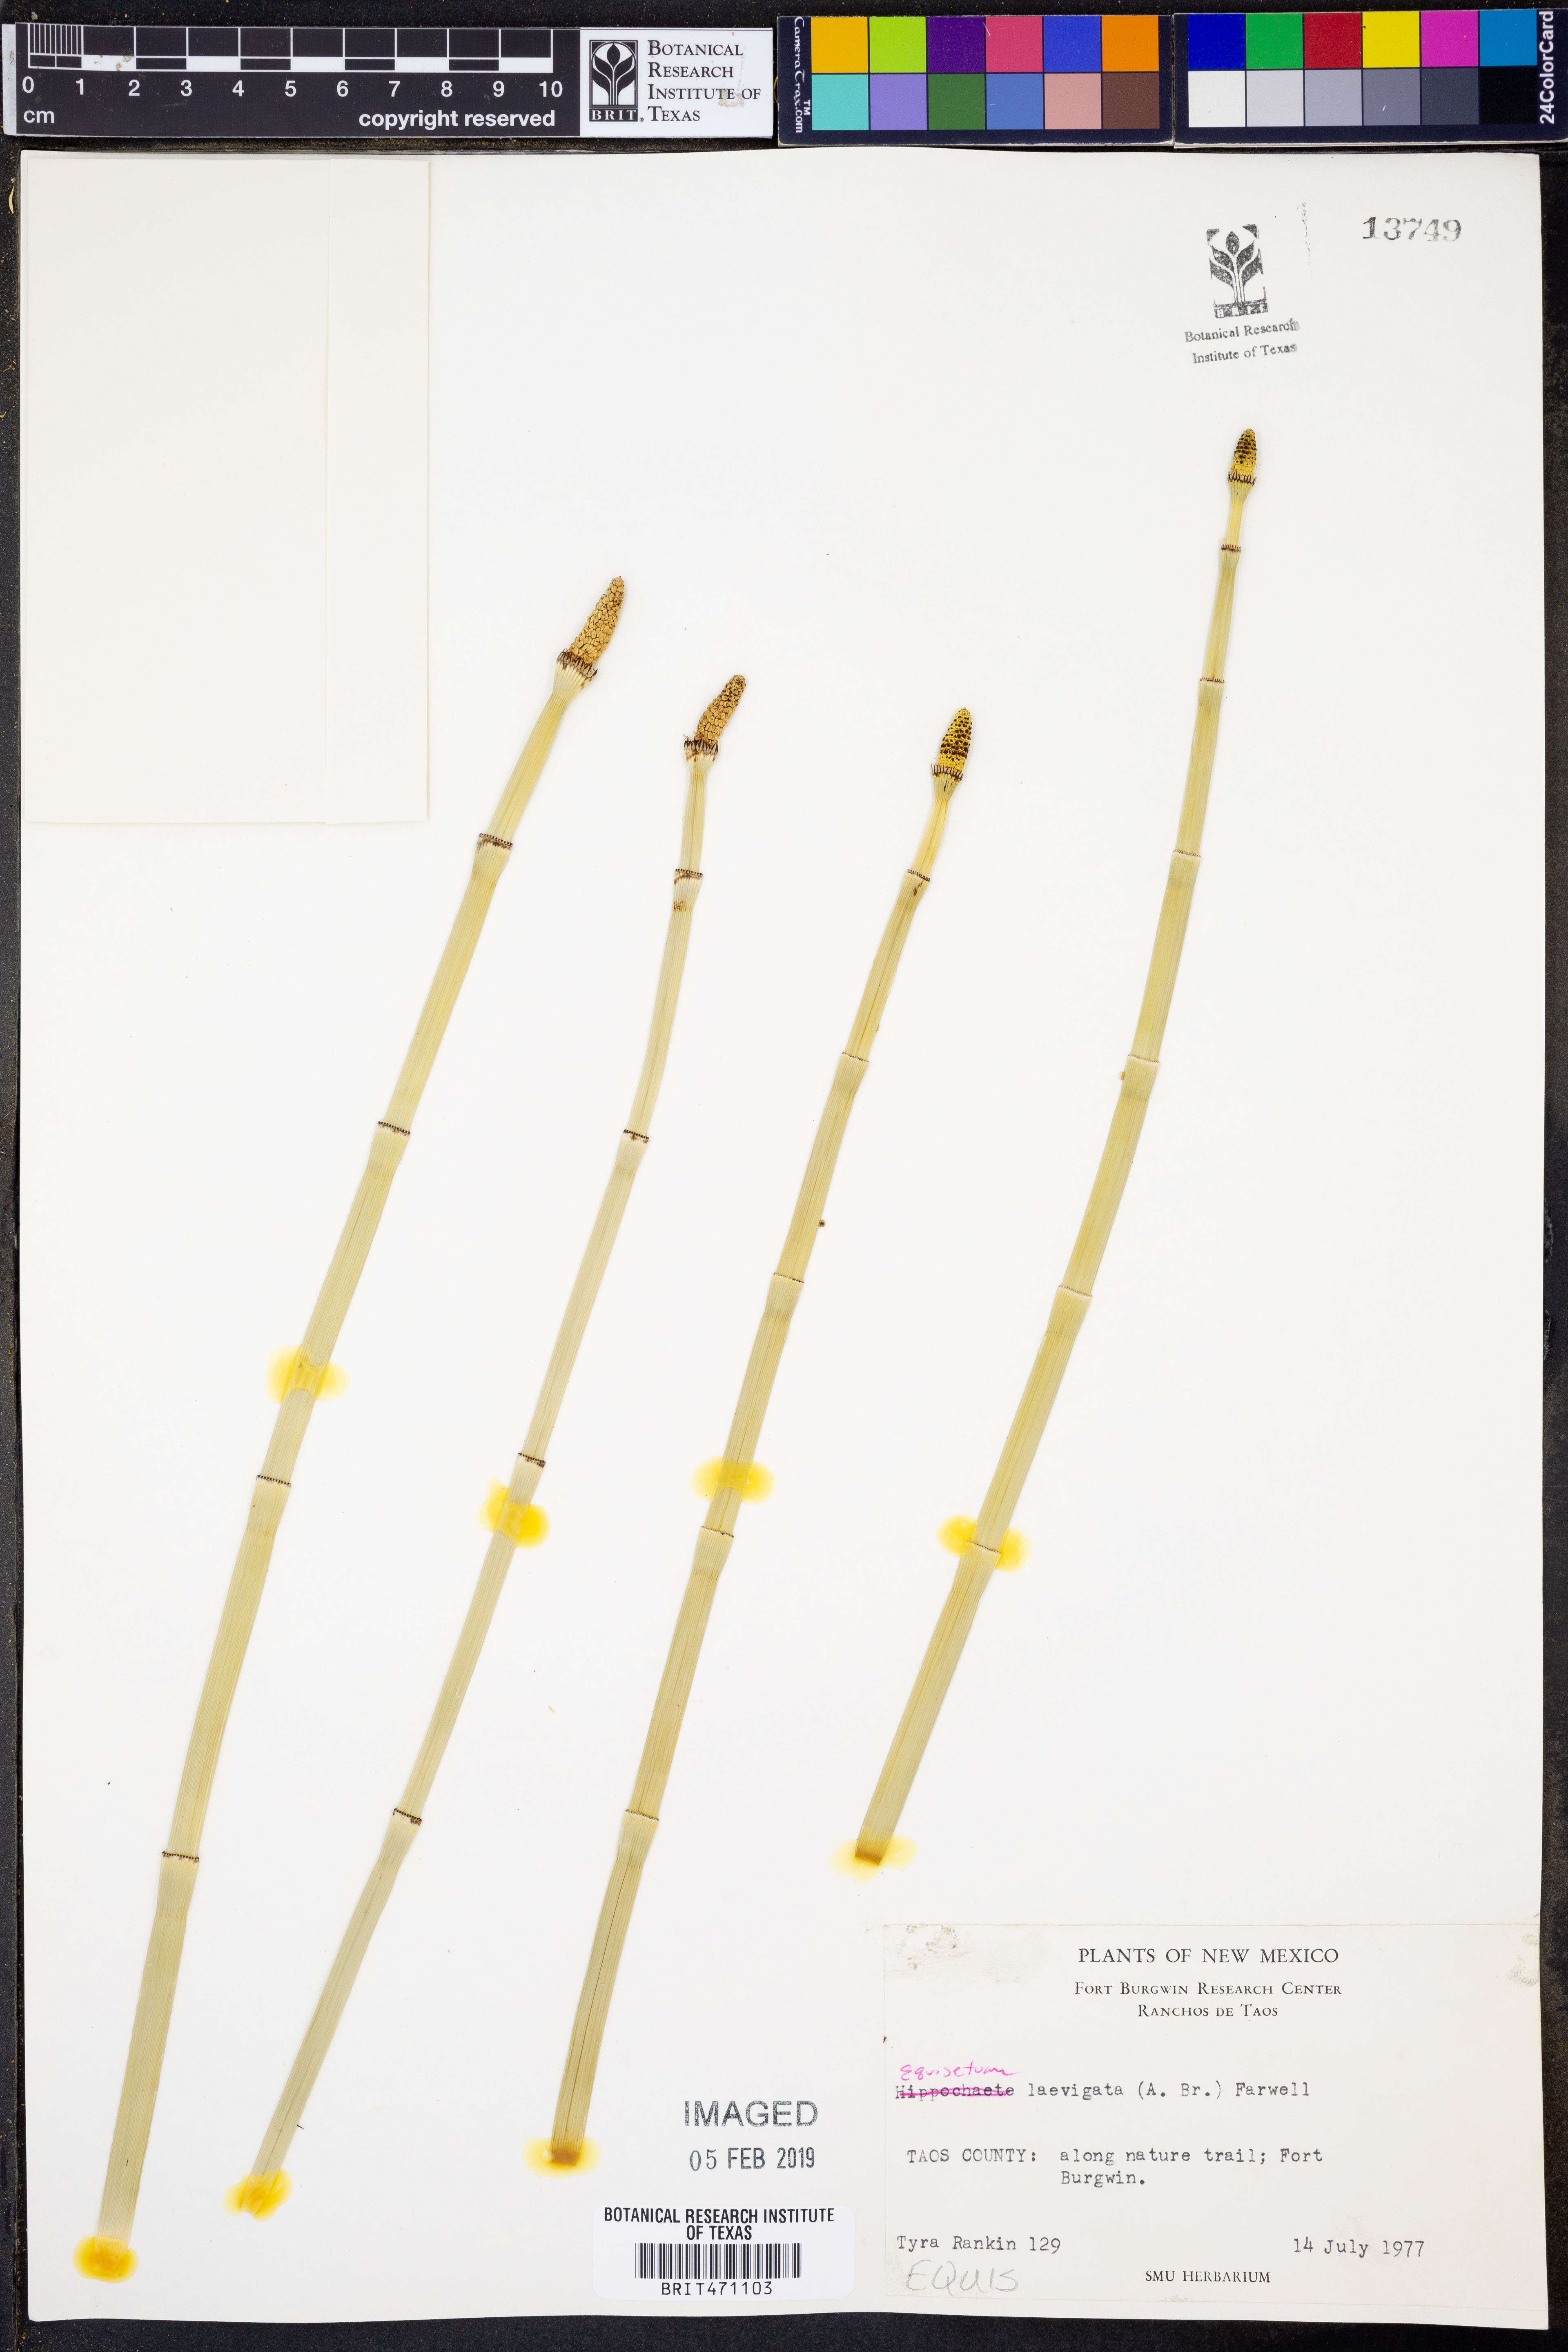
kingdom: Plantae
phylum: Tracheophyta
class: Polypodiopsida
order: Equisetales
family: Equisetaceae
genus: Equisetum
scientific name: Equisetum laevigatum
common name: Smooth scouring-rush
